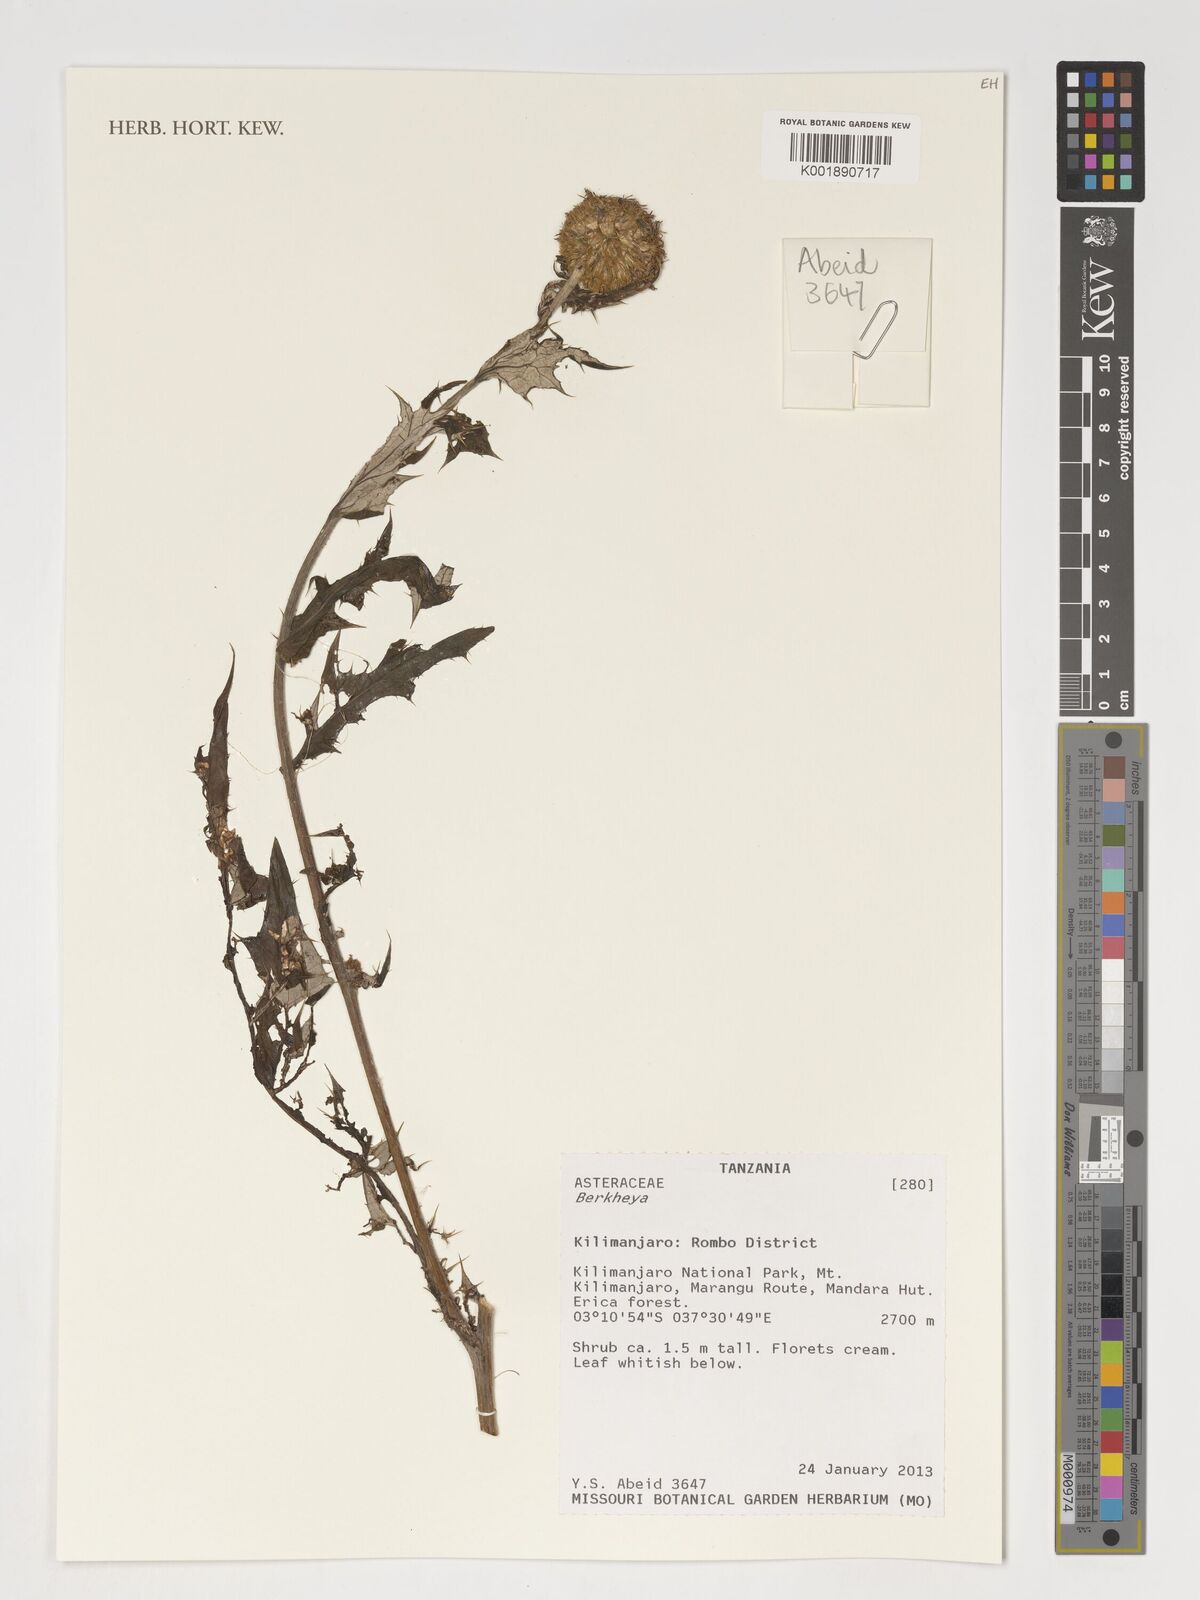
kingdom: Plantae
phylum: Tracheophyta
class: Magnoliopsida
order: Asterales
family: Asteraceae
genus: Berkheya
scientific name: Berkheya
